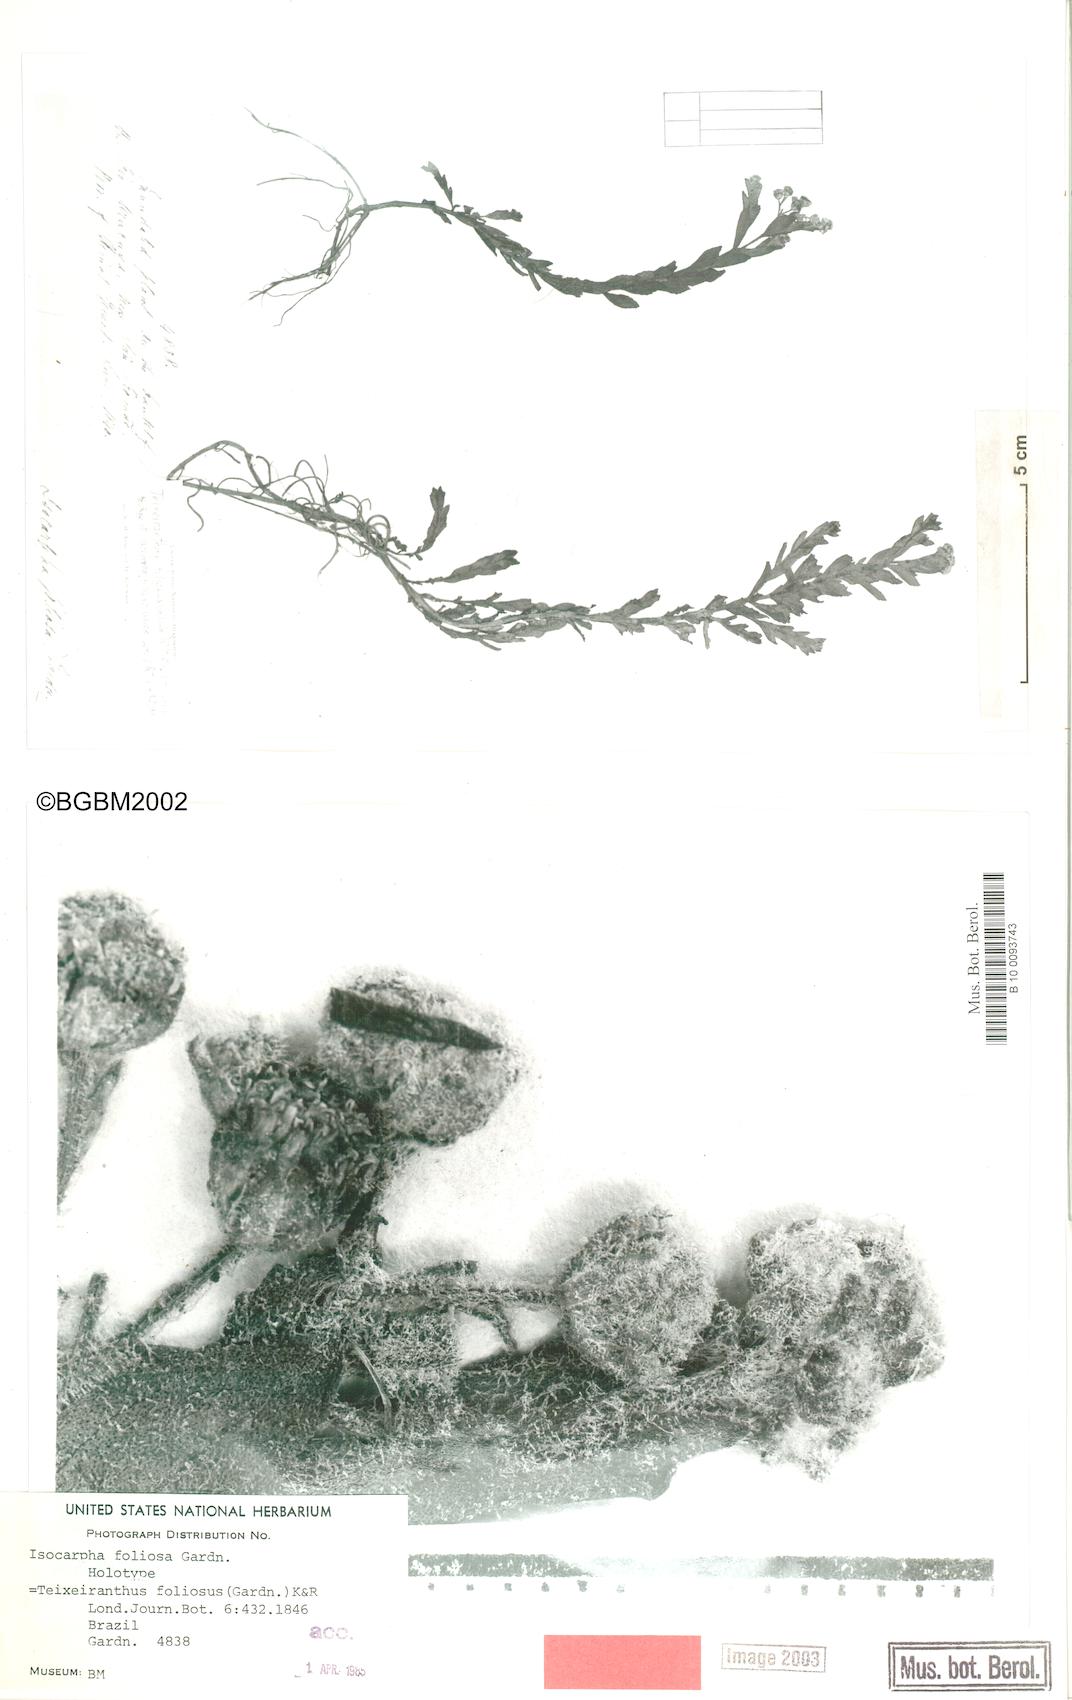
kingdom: Plantae
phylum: Tracheophyta
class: Magnoliopsida
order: Asterales
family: Asteraceae
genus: Teixeiranthus
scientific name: Teixeiranthus foliosus
